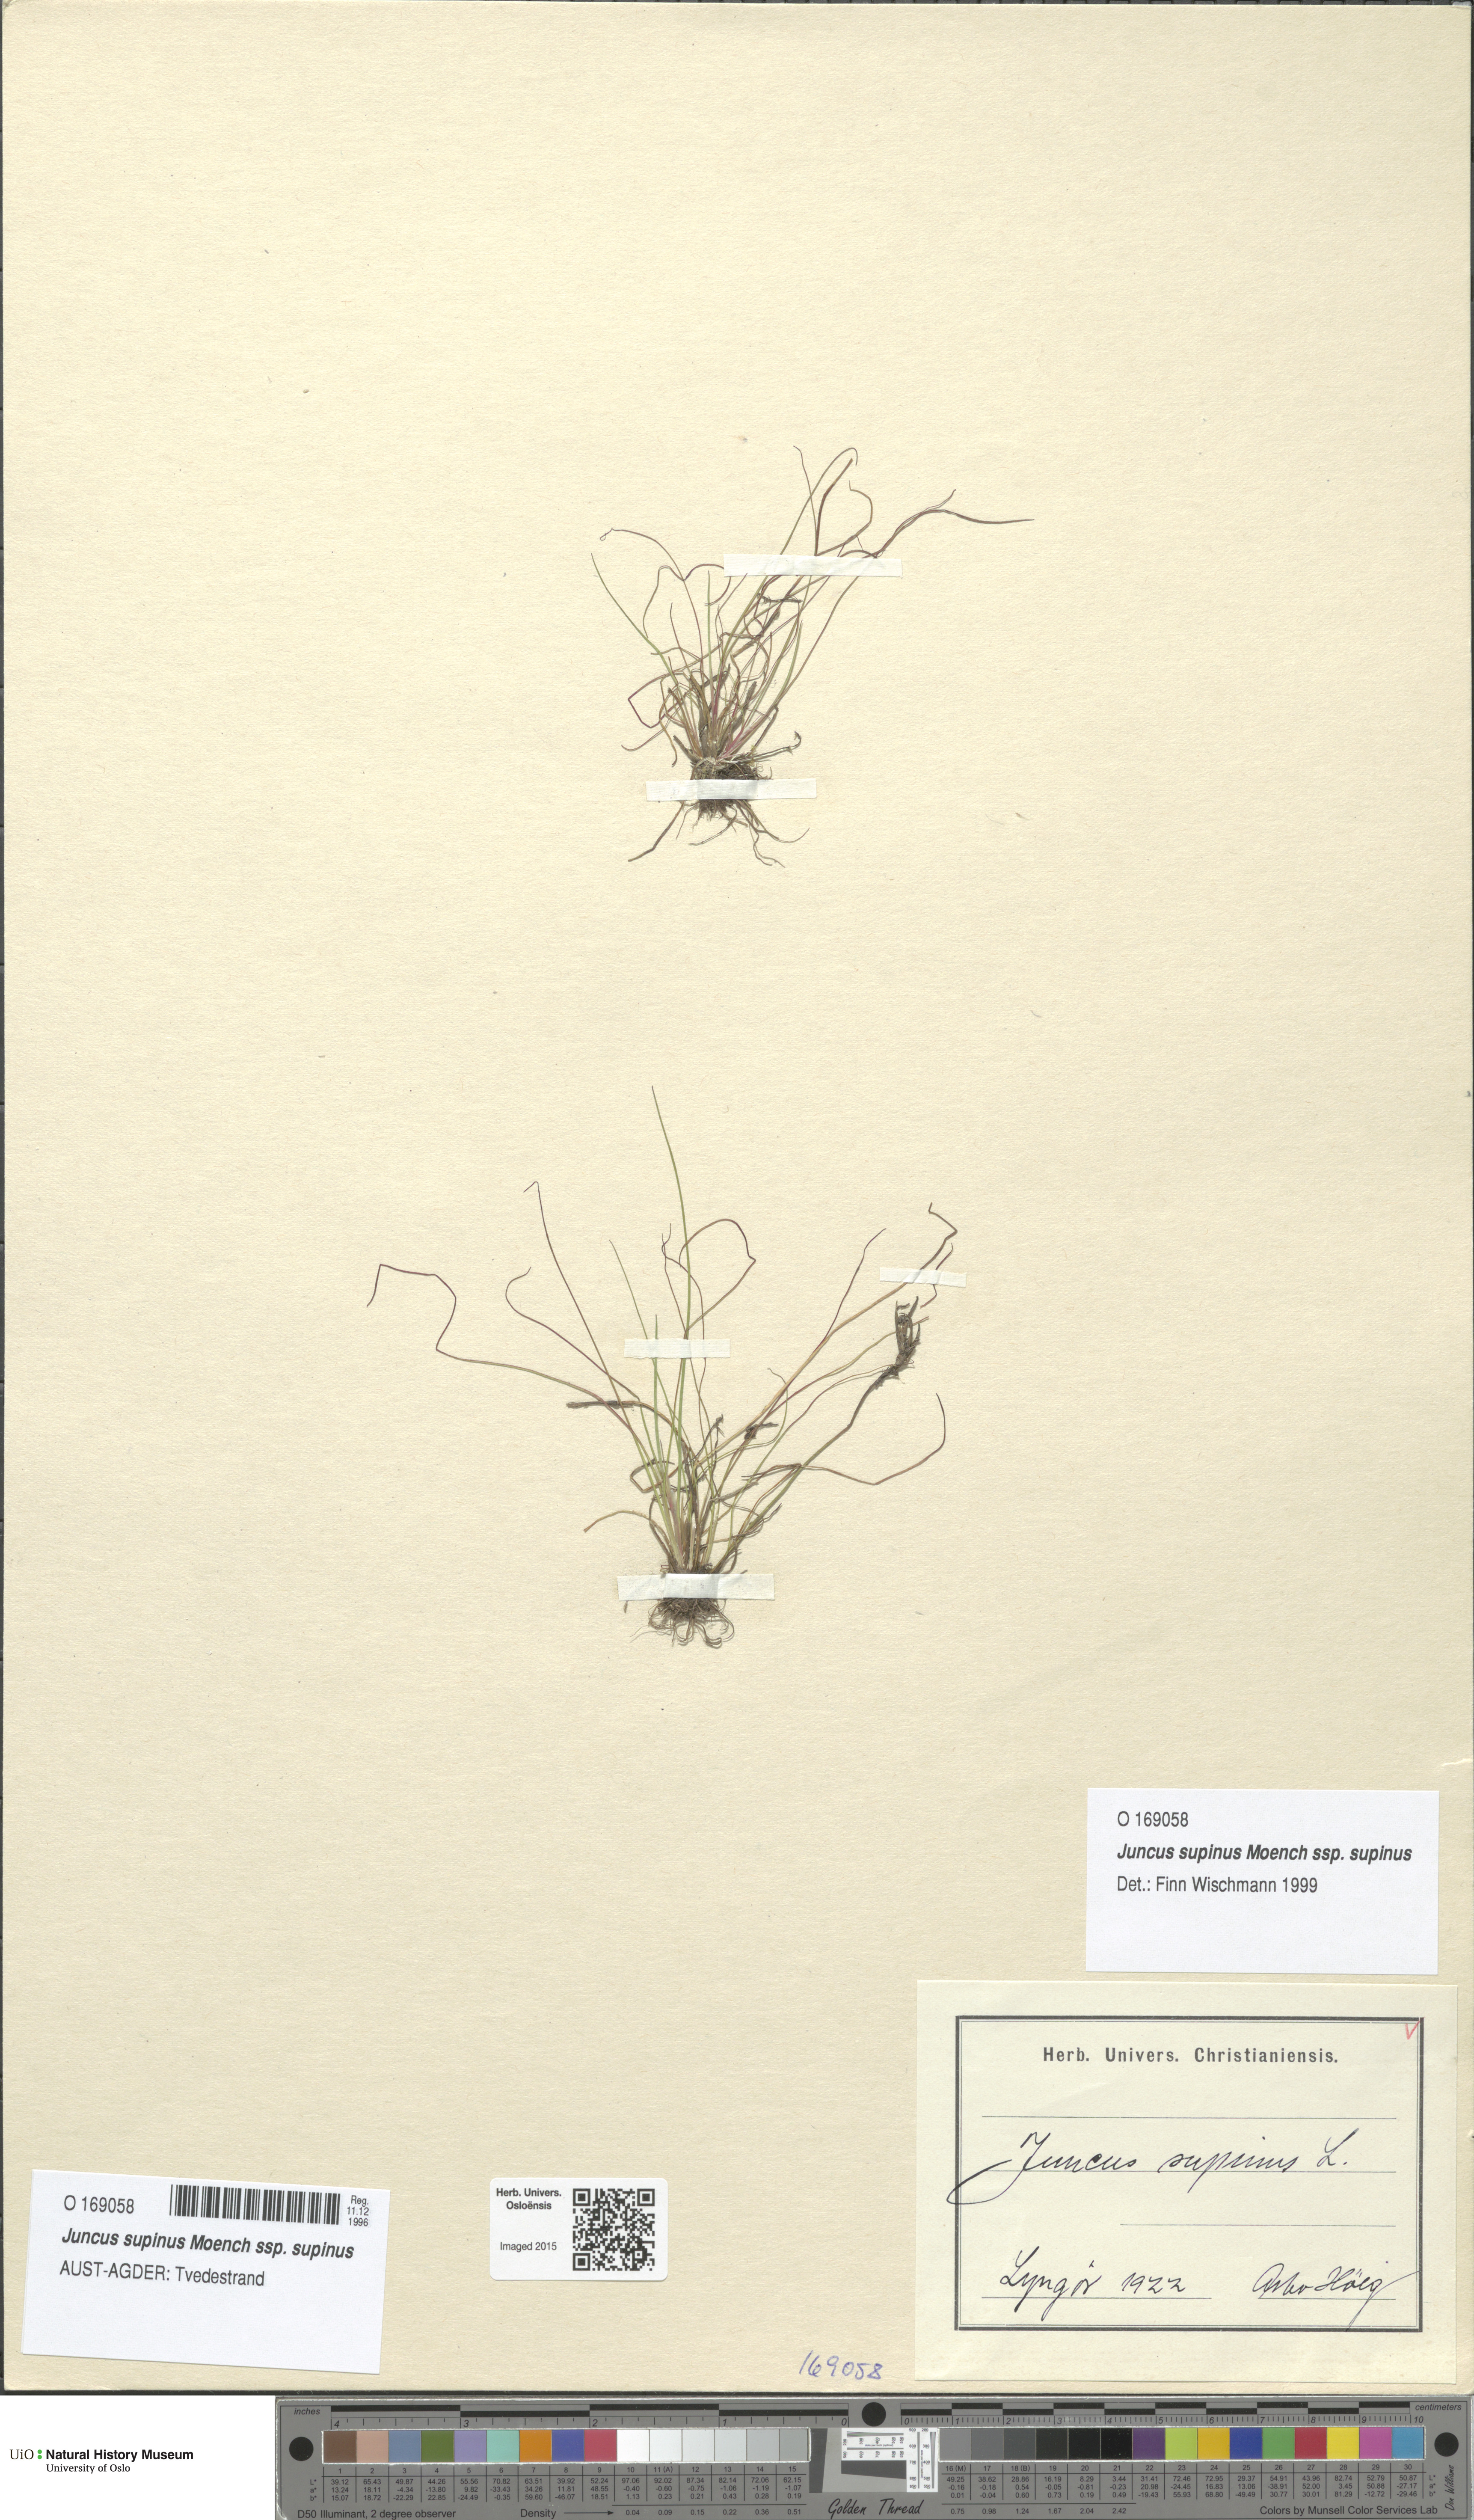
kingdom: Plantae
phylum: Tracheophyta
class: Liliopsida
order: Poales
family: Juncaceae
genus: Juncus
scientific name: Juncus bulbosus
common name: Bulbous rush
